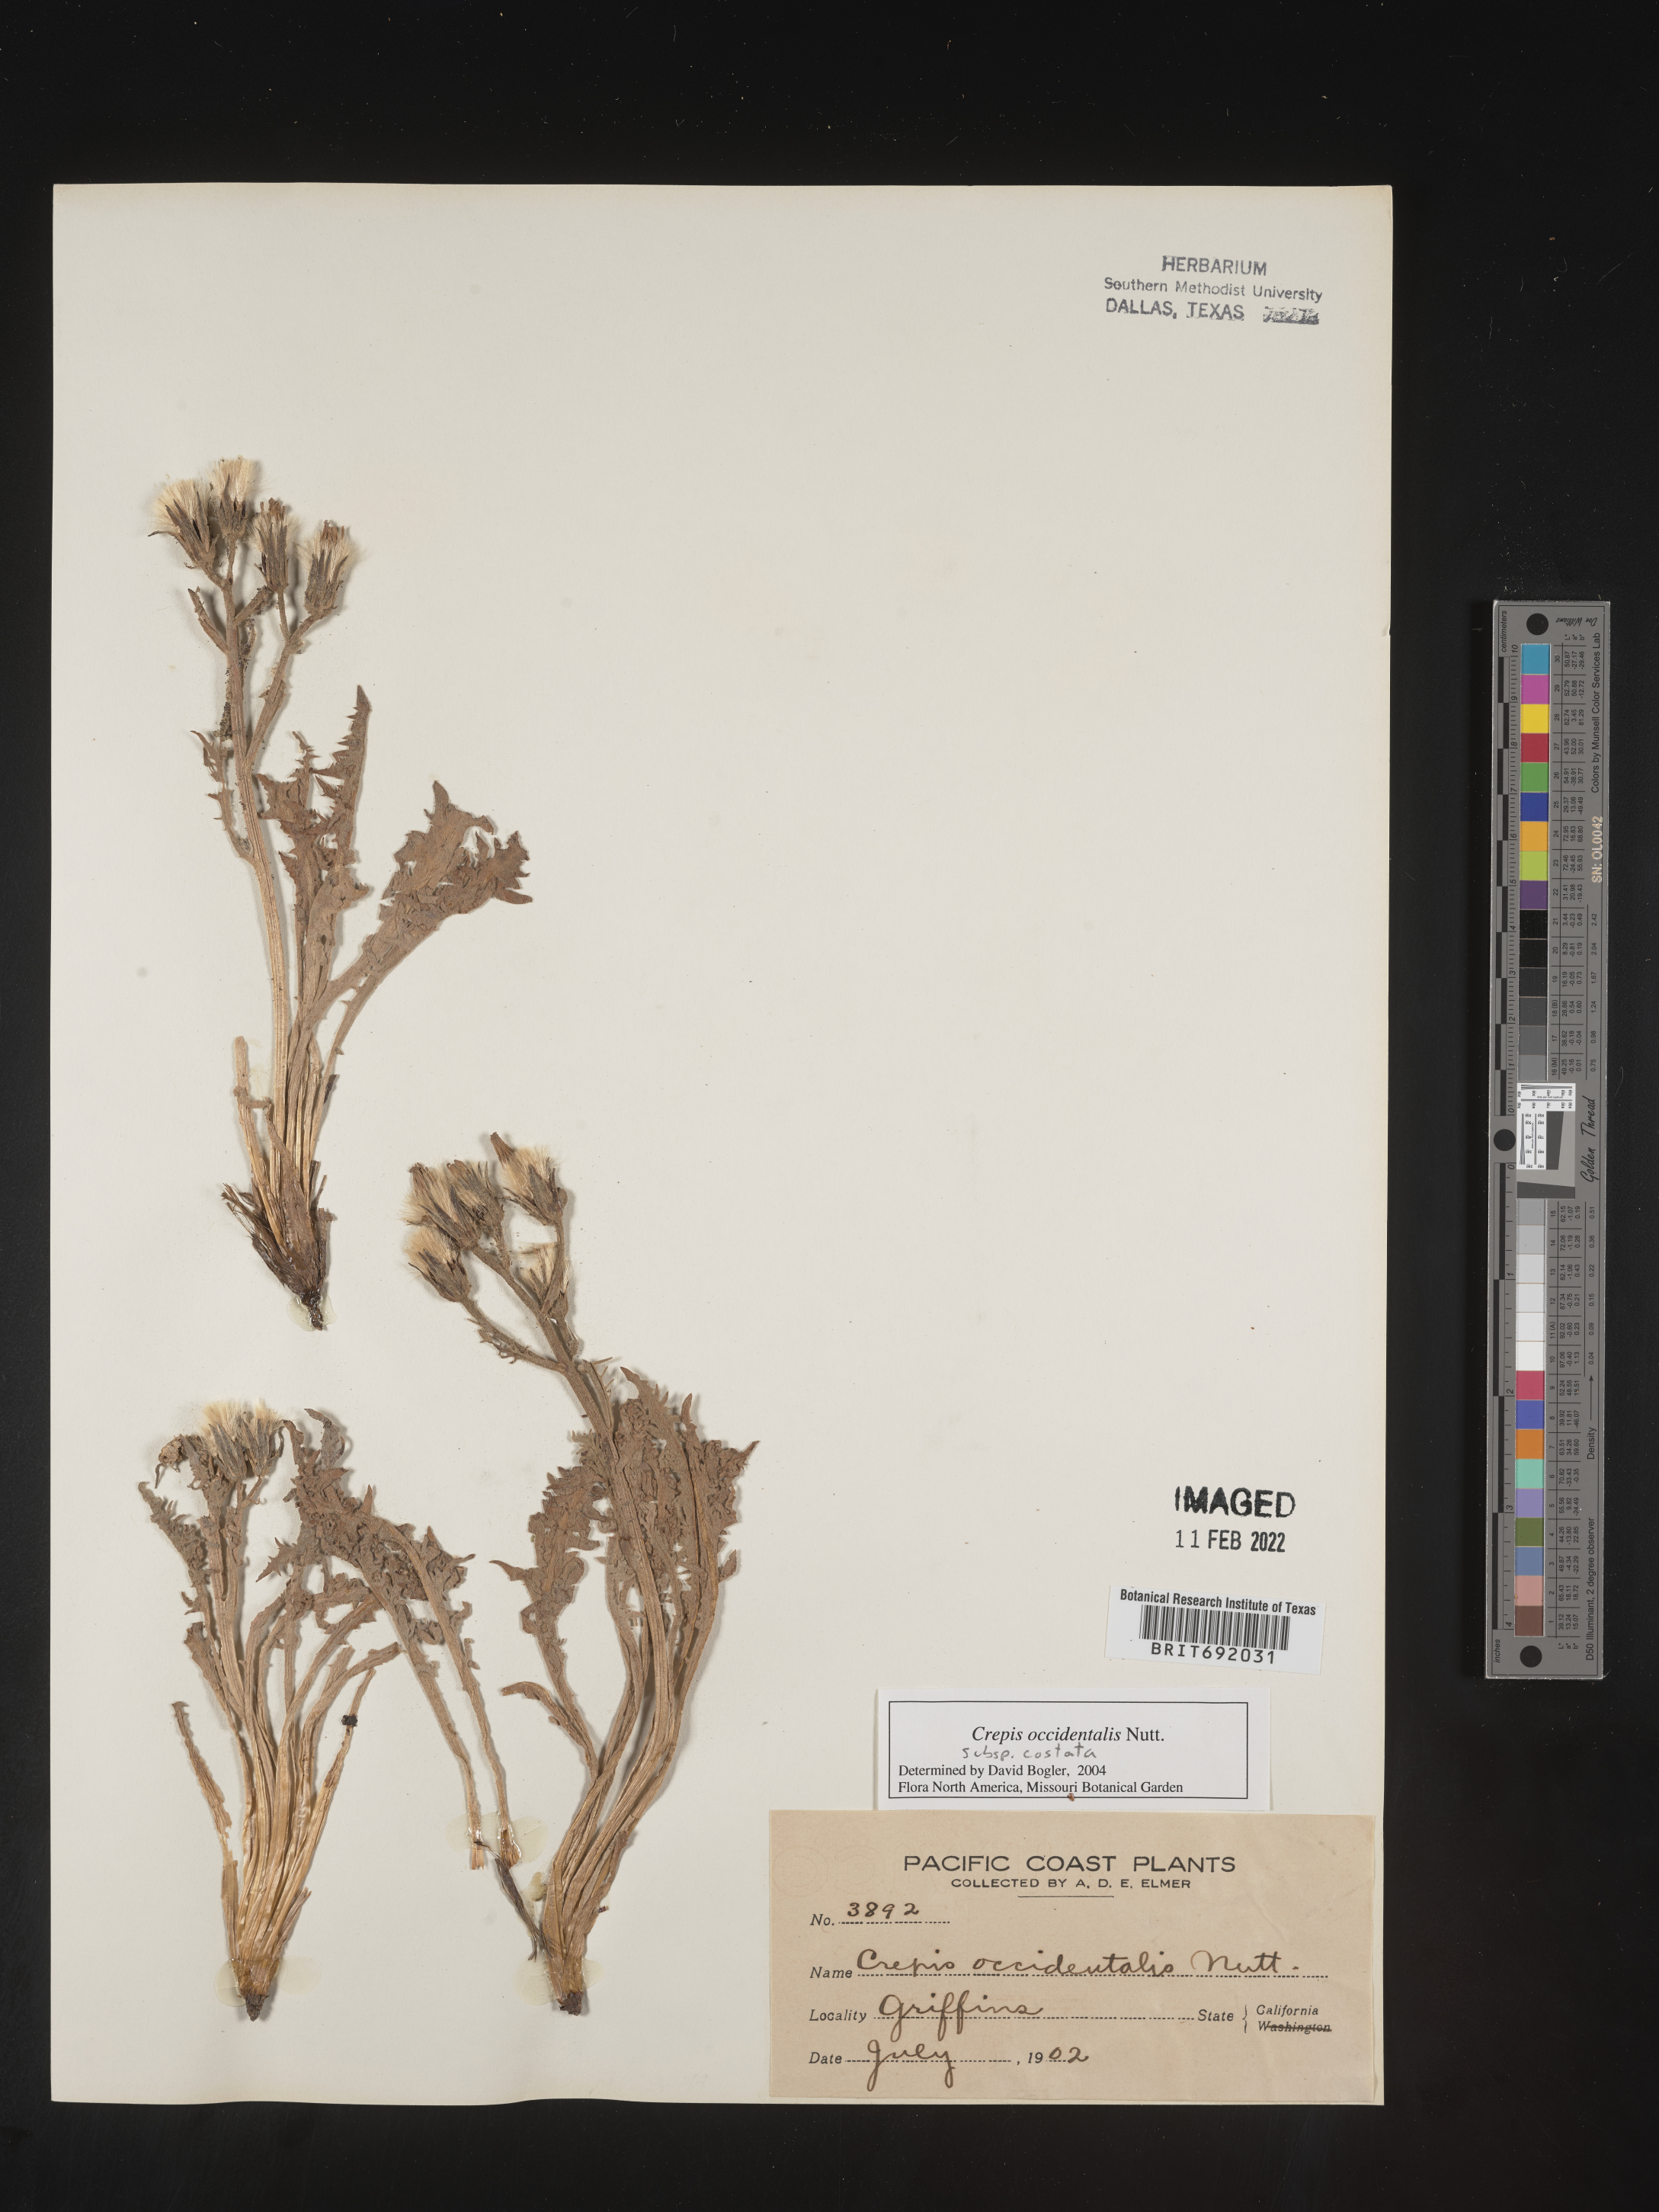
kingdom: Plantae
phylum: Tracheophyta
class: Magnoliopsida
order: Asterales
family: Asteraceae
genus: Crepis
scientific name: Crepis occidentalis
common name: Gray hawk's-beard
